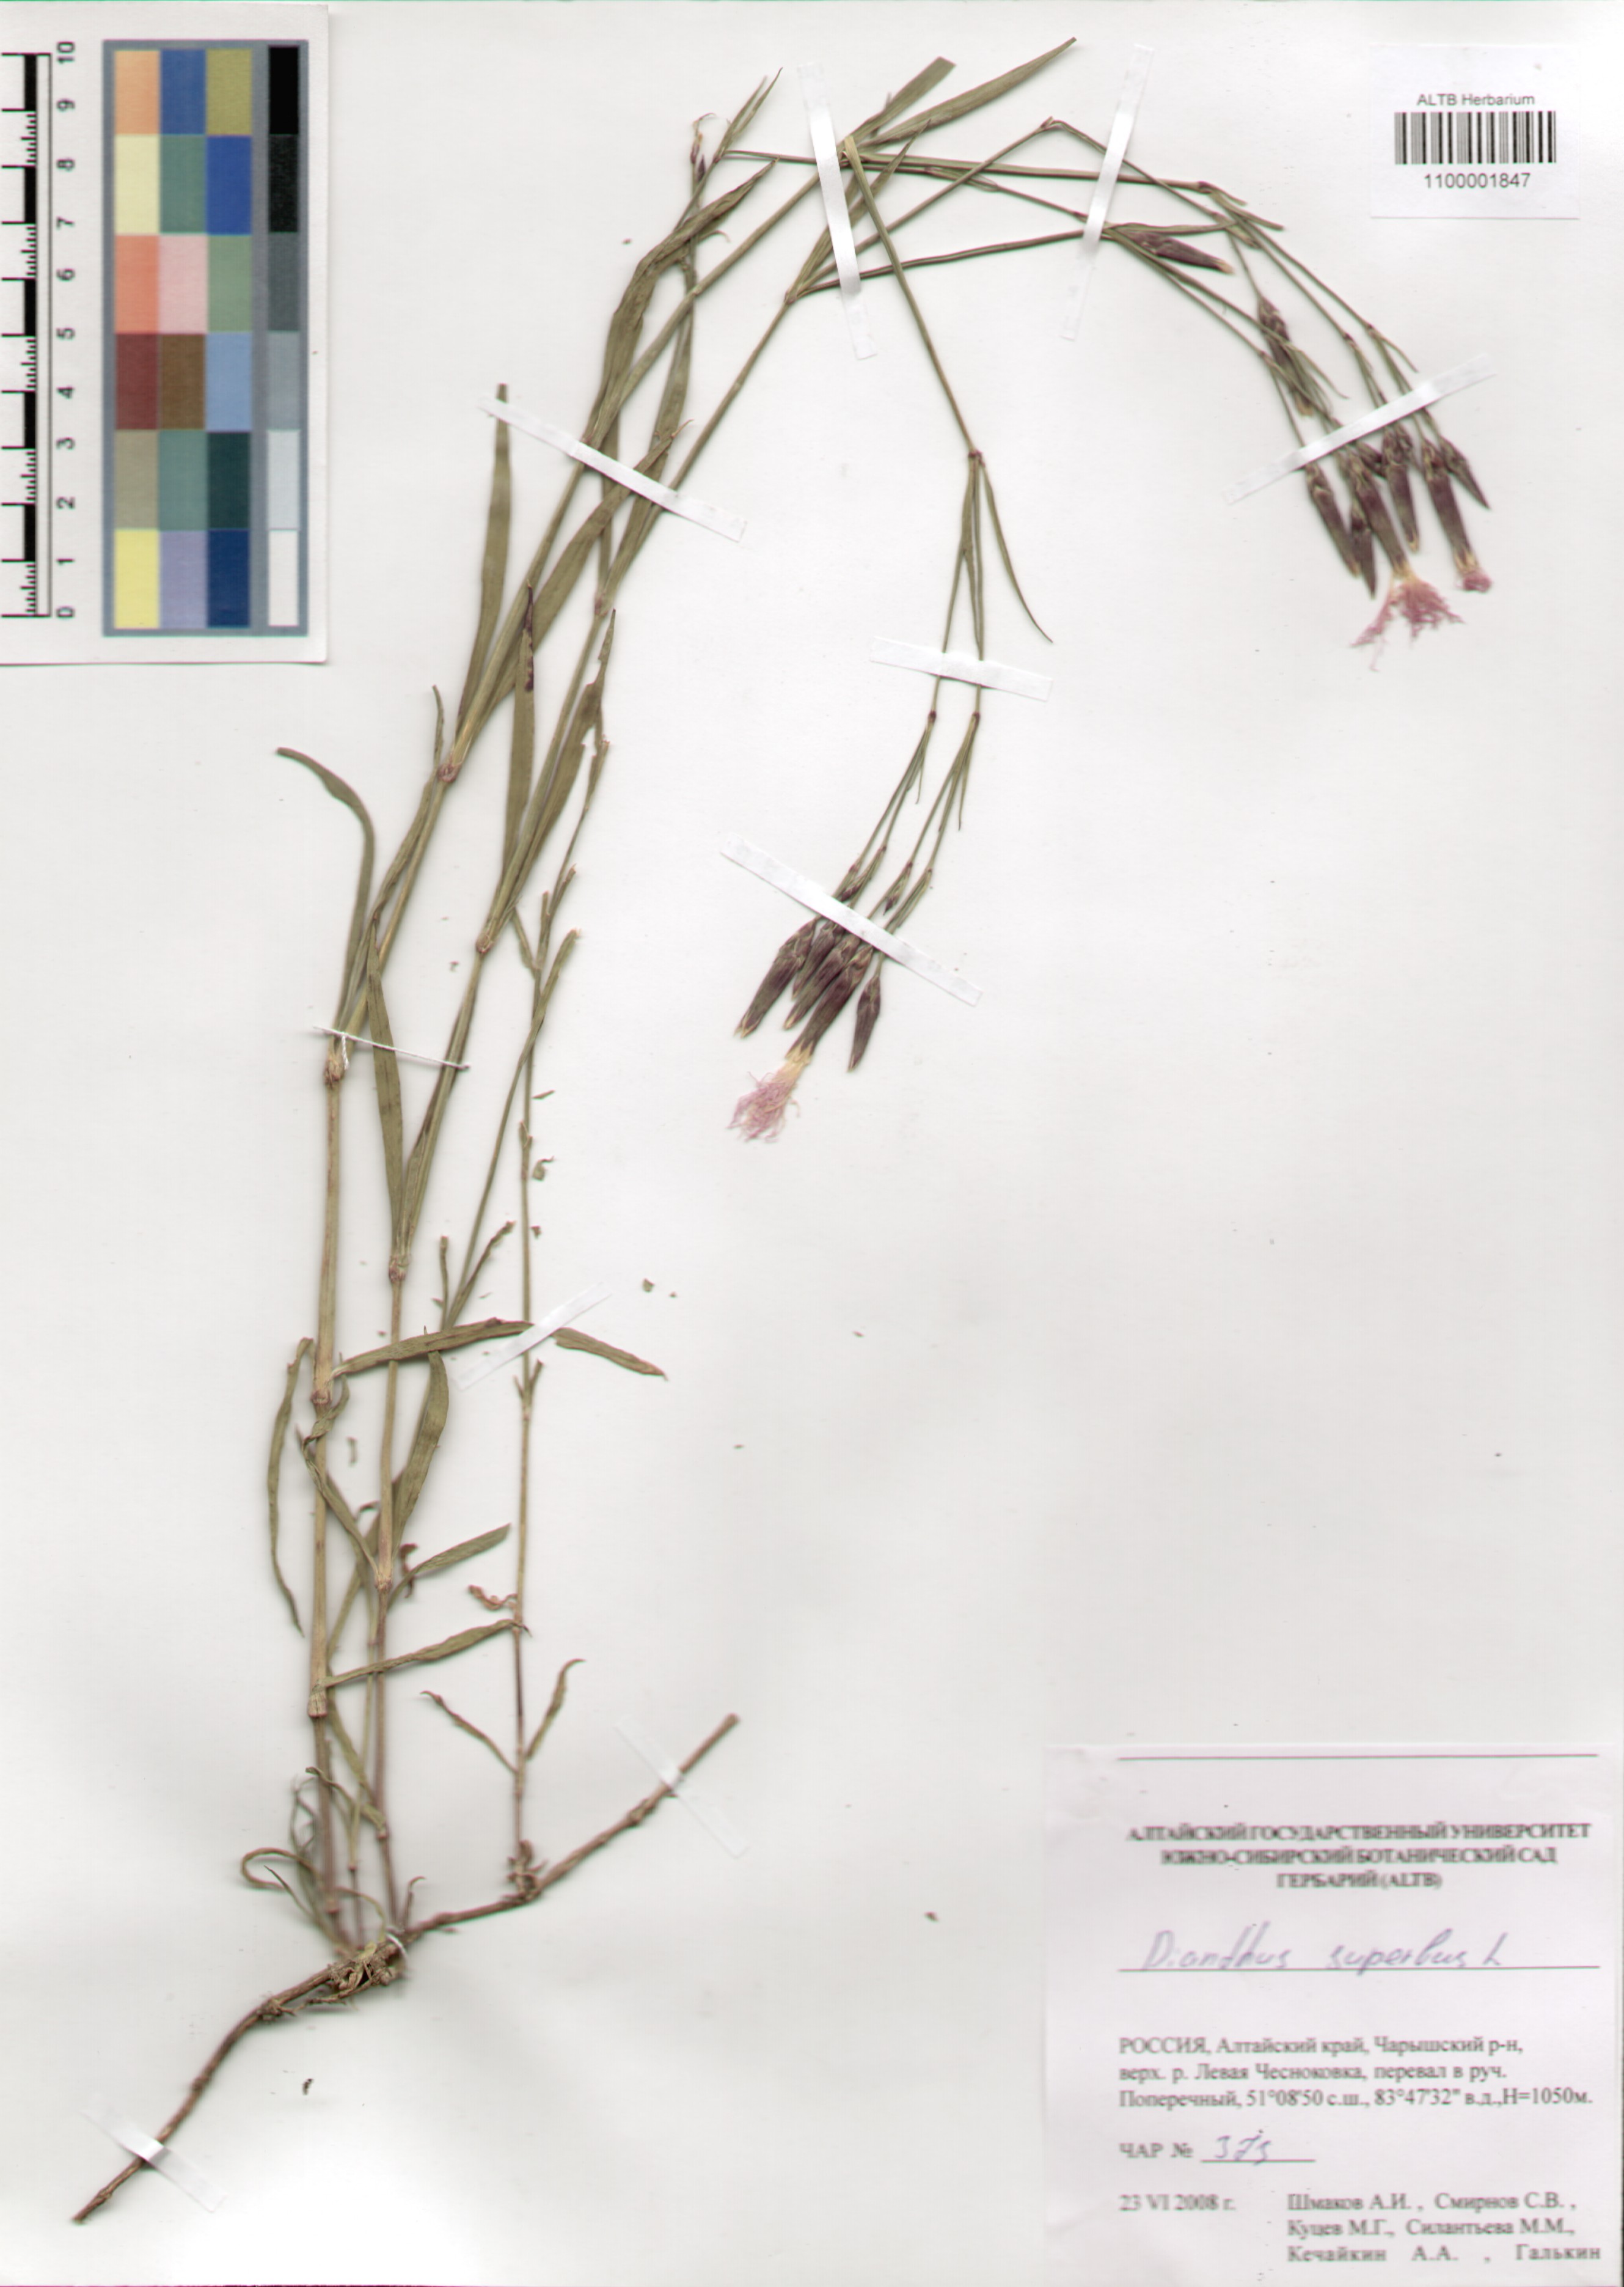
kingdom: Plantae
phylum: Tracheophyta
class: Magnoliopsida
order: Caryophyllales
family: Caryophyllaceae
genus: Dianthus
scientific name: Dianthus superbus
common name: Fringed pink
